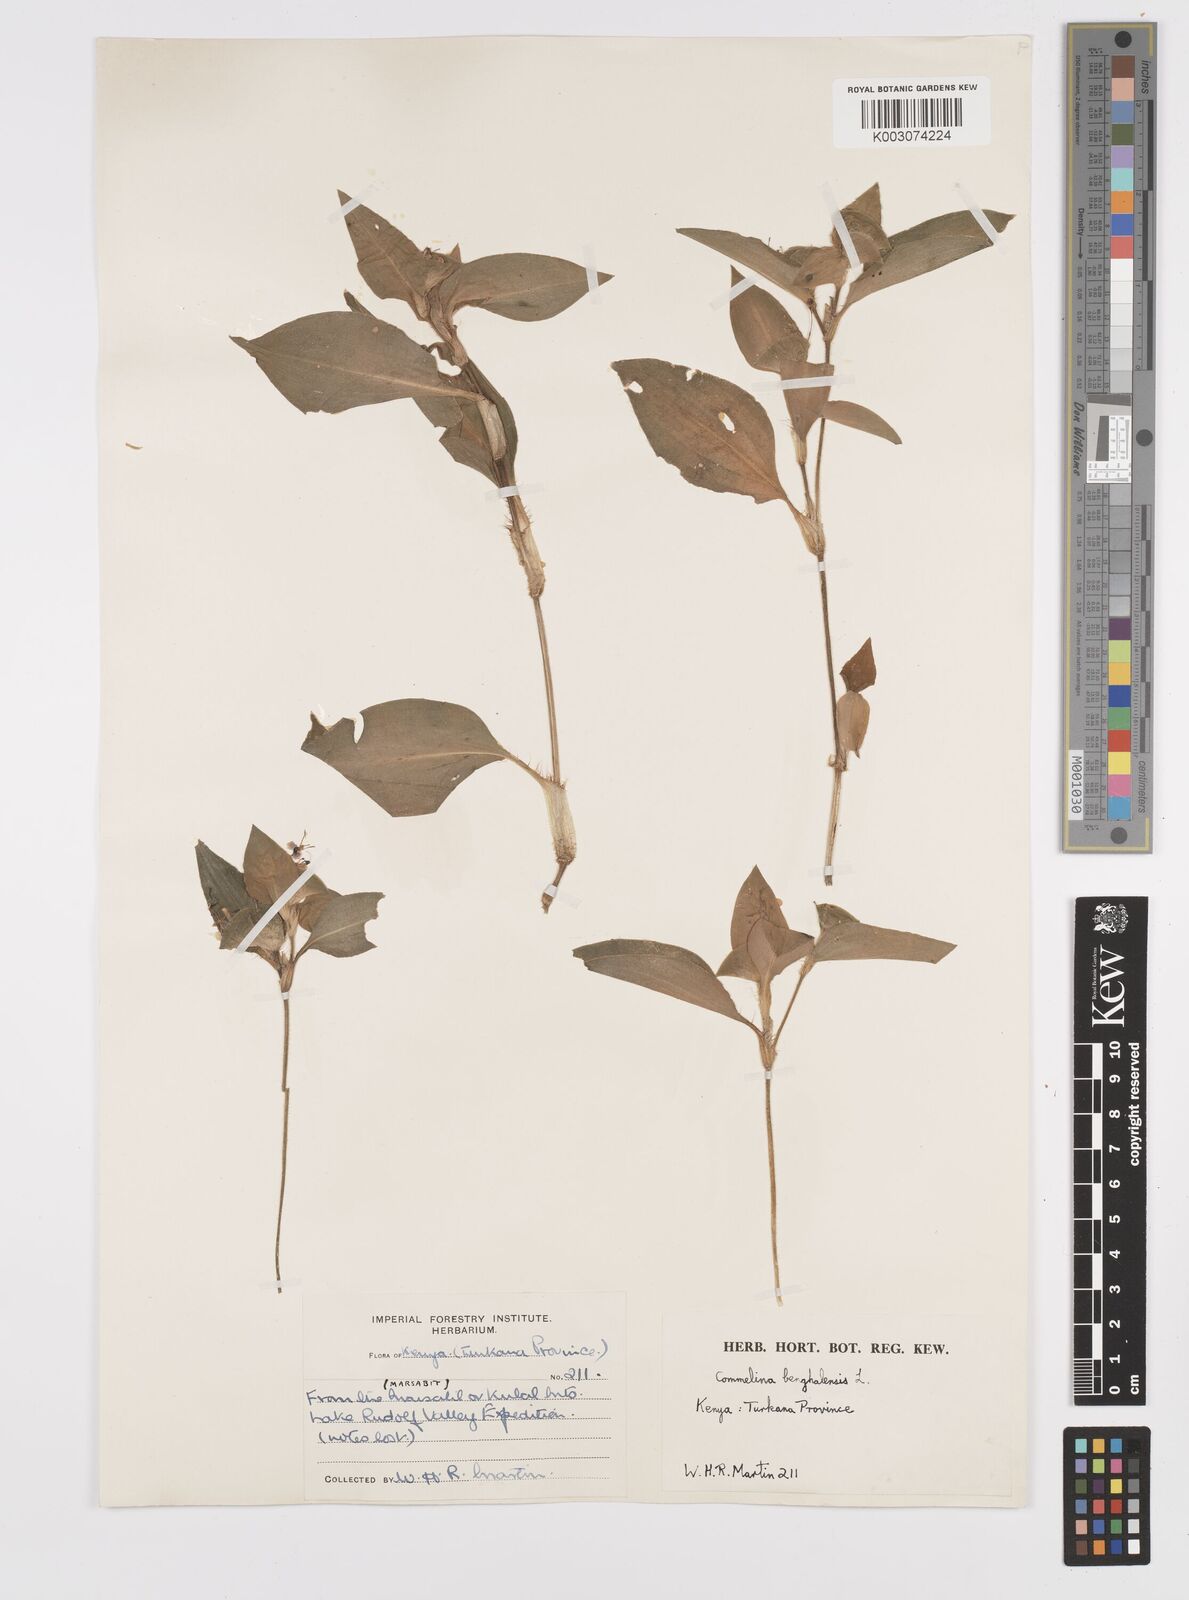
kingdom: Plantae
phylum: Tracheophyta
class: Liliopsida
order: Commelinales
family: Commelinaceae
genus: Commelina
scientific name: Commelina benghalensis
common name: Jio
